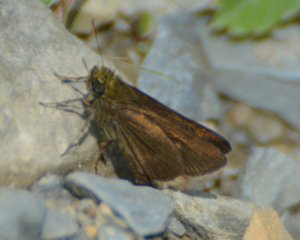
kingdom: Animalia
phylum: Arthropoda
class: Insecta
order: Lepidoptera
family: Hesperiidae
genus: Euphyes
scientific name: Euphyes vestris
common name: Dun Skipper
